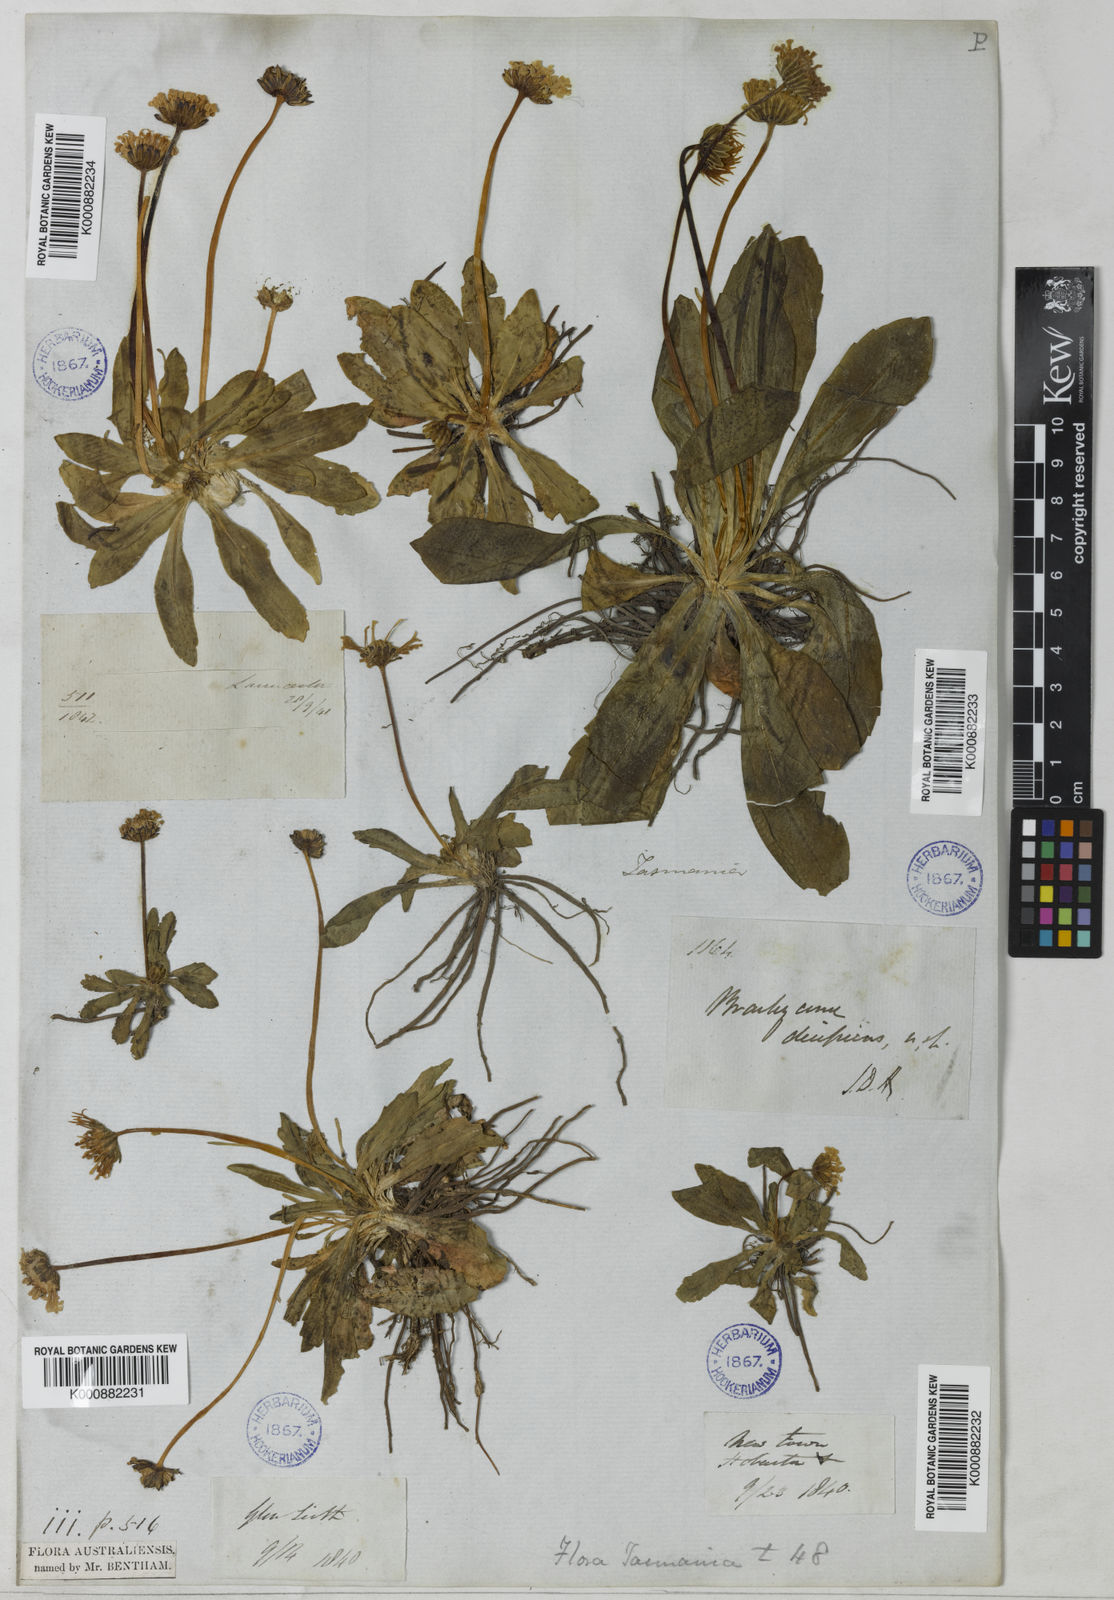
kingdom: Plantae
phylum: Tracheophyta
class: Magnoliopsida
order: Asterales
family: Asteraceae
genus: Brachyscome
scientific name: Brachyscome decipiens
